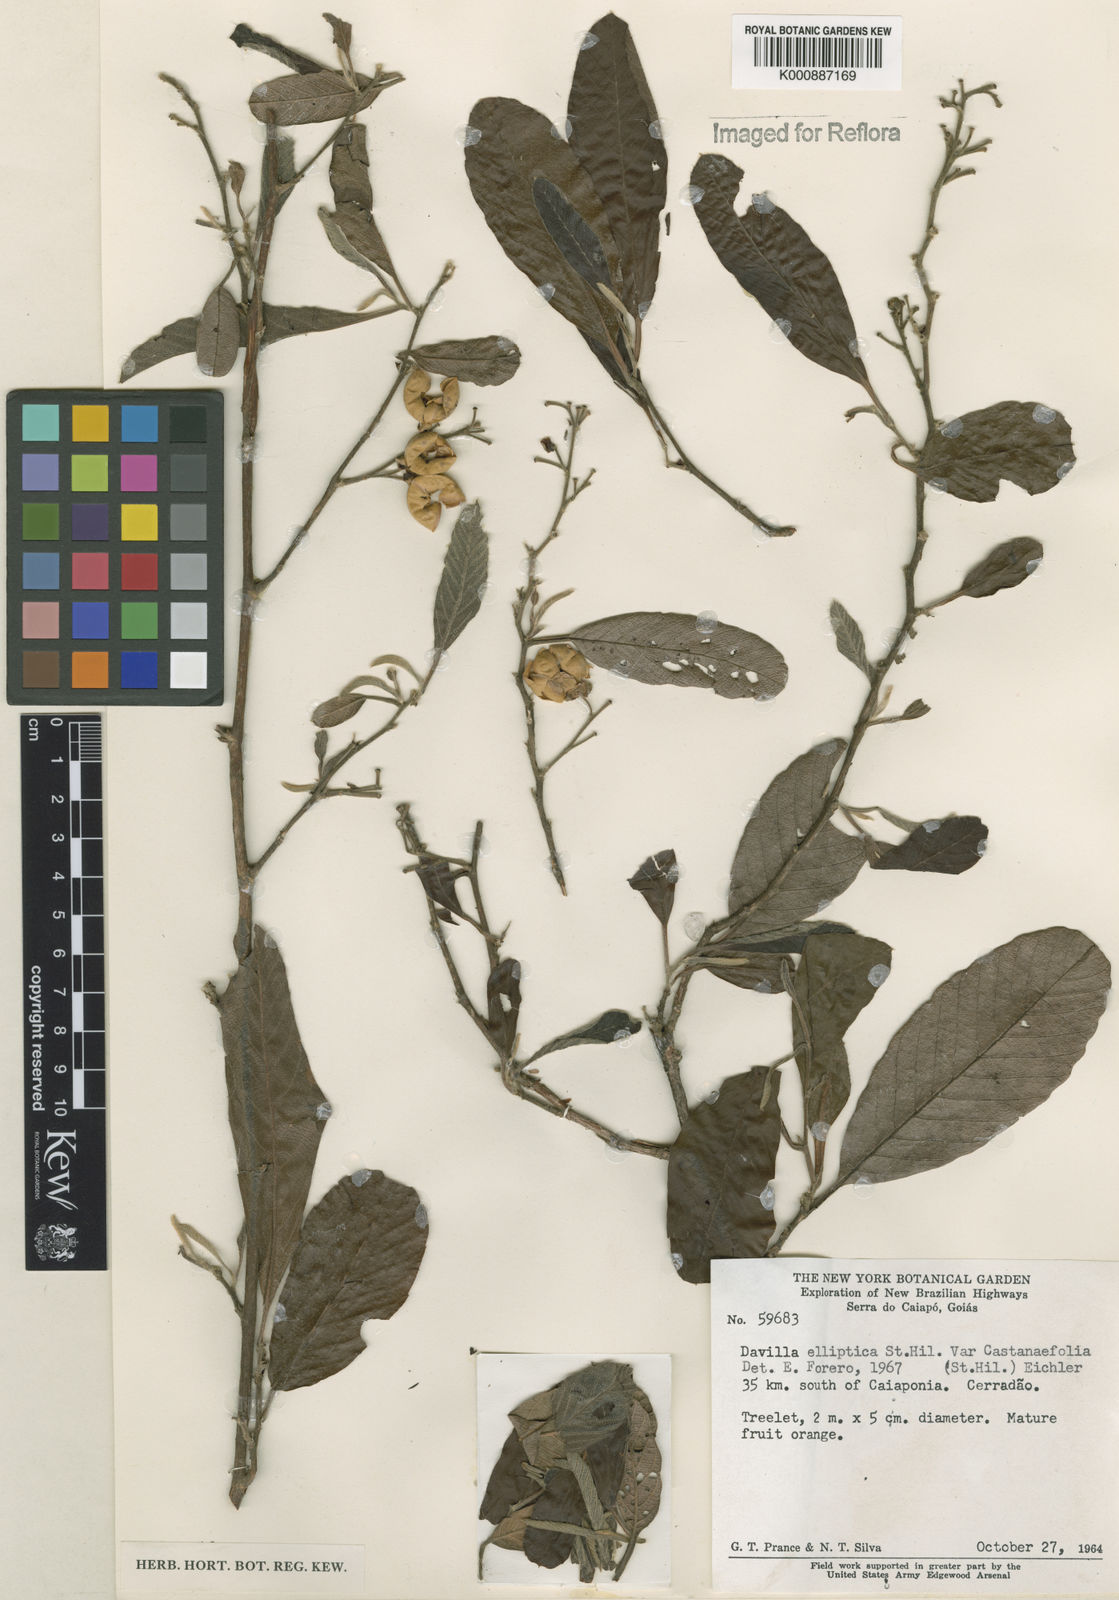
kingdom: Plantae
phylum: Tracheophyta
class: Magnoliopsida
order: Dilleniales
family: Dilleniaceae
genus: Davilla
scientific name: Davilla elliptica
